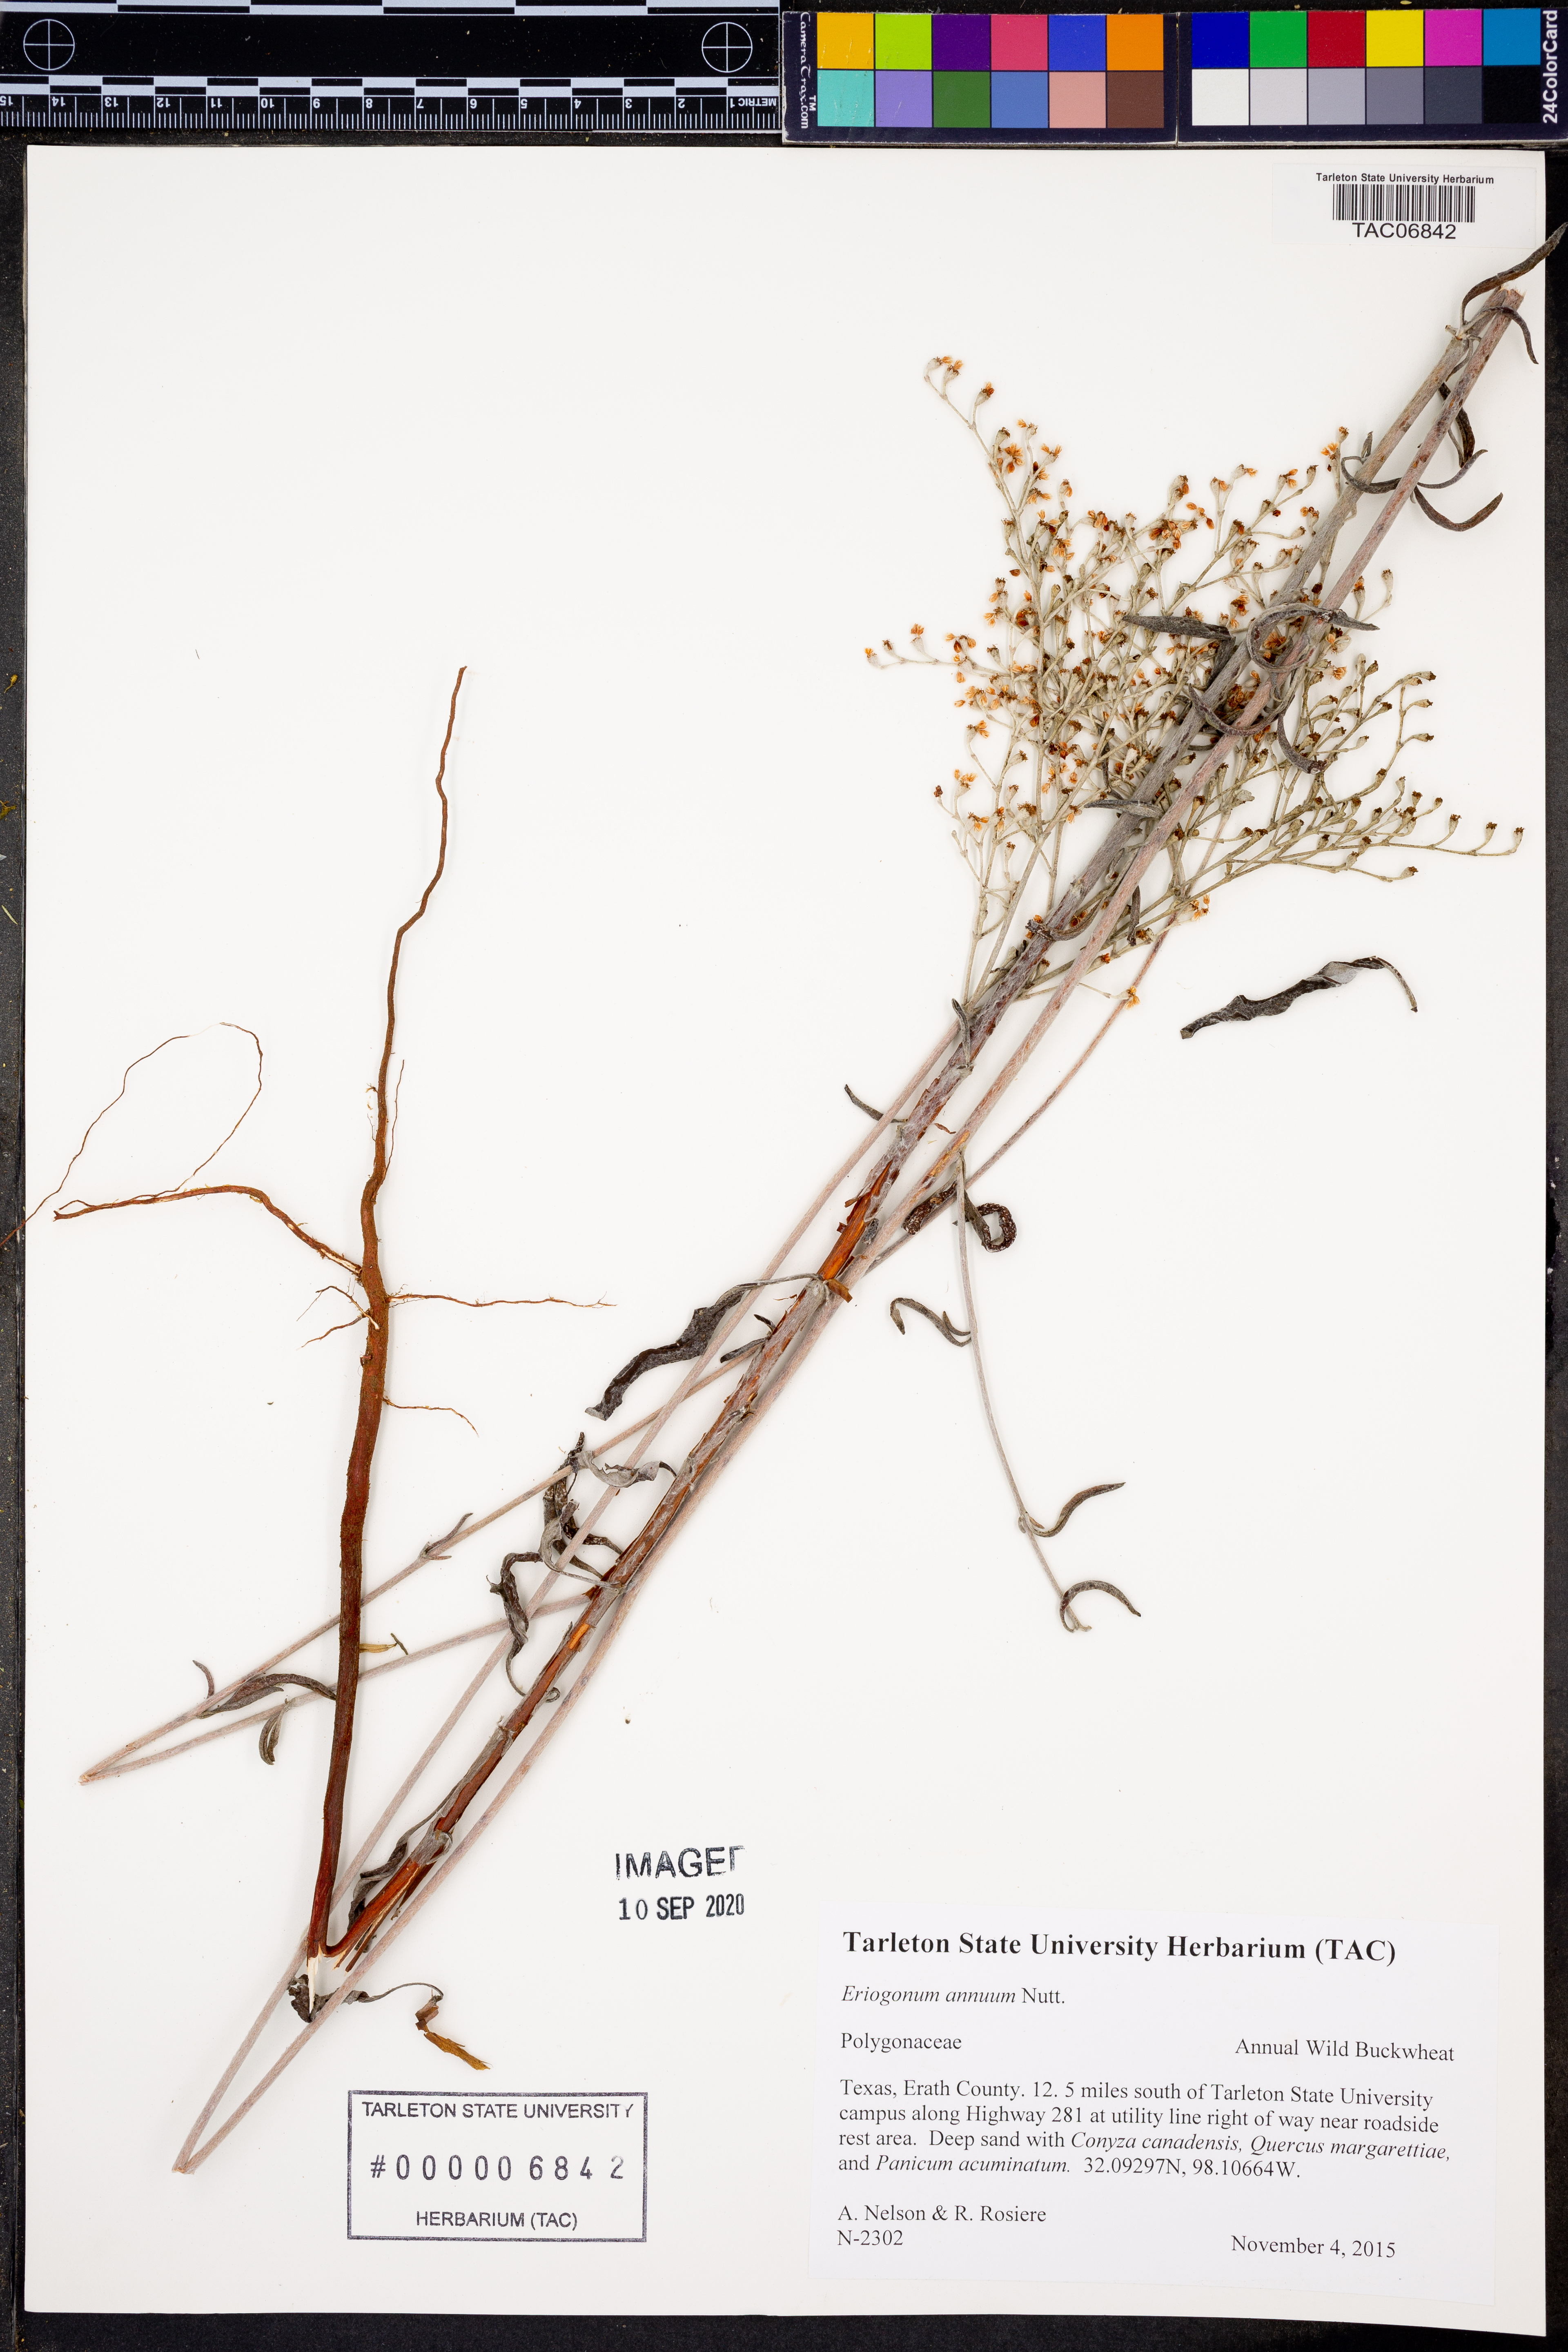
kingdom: Plantae
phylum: Tracheophyta
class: Magnoliopsida
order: Caryophyllales
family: Polygonaceae
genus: Eriogonum
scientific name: Eriogonum annuum
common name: Annual wild buckwheat
